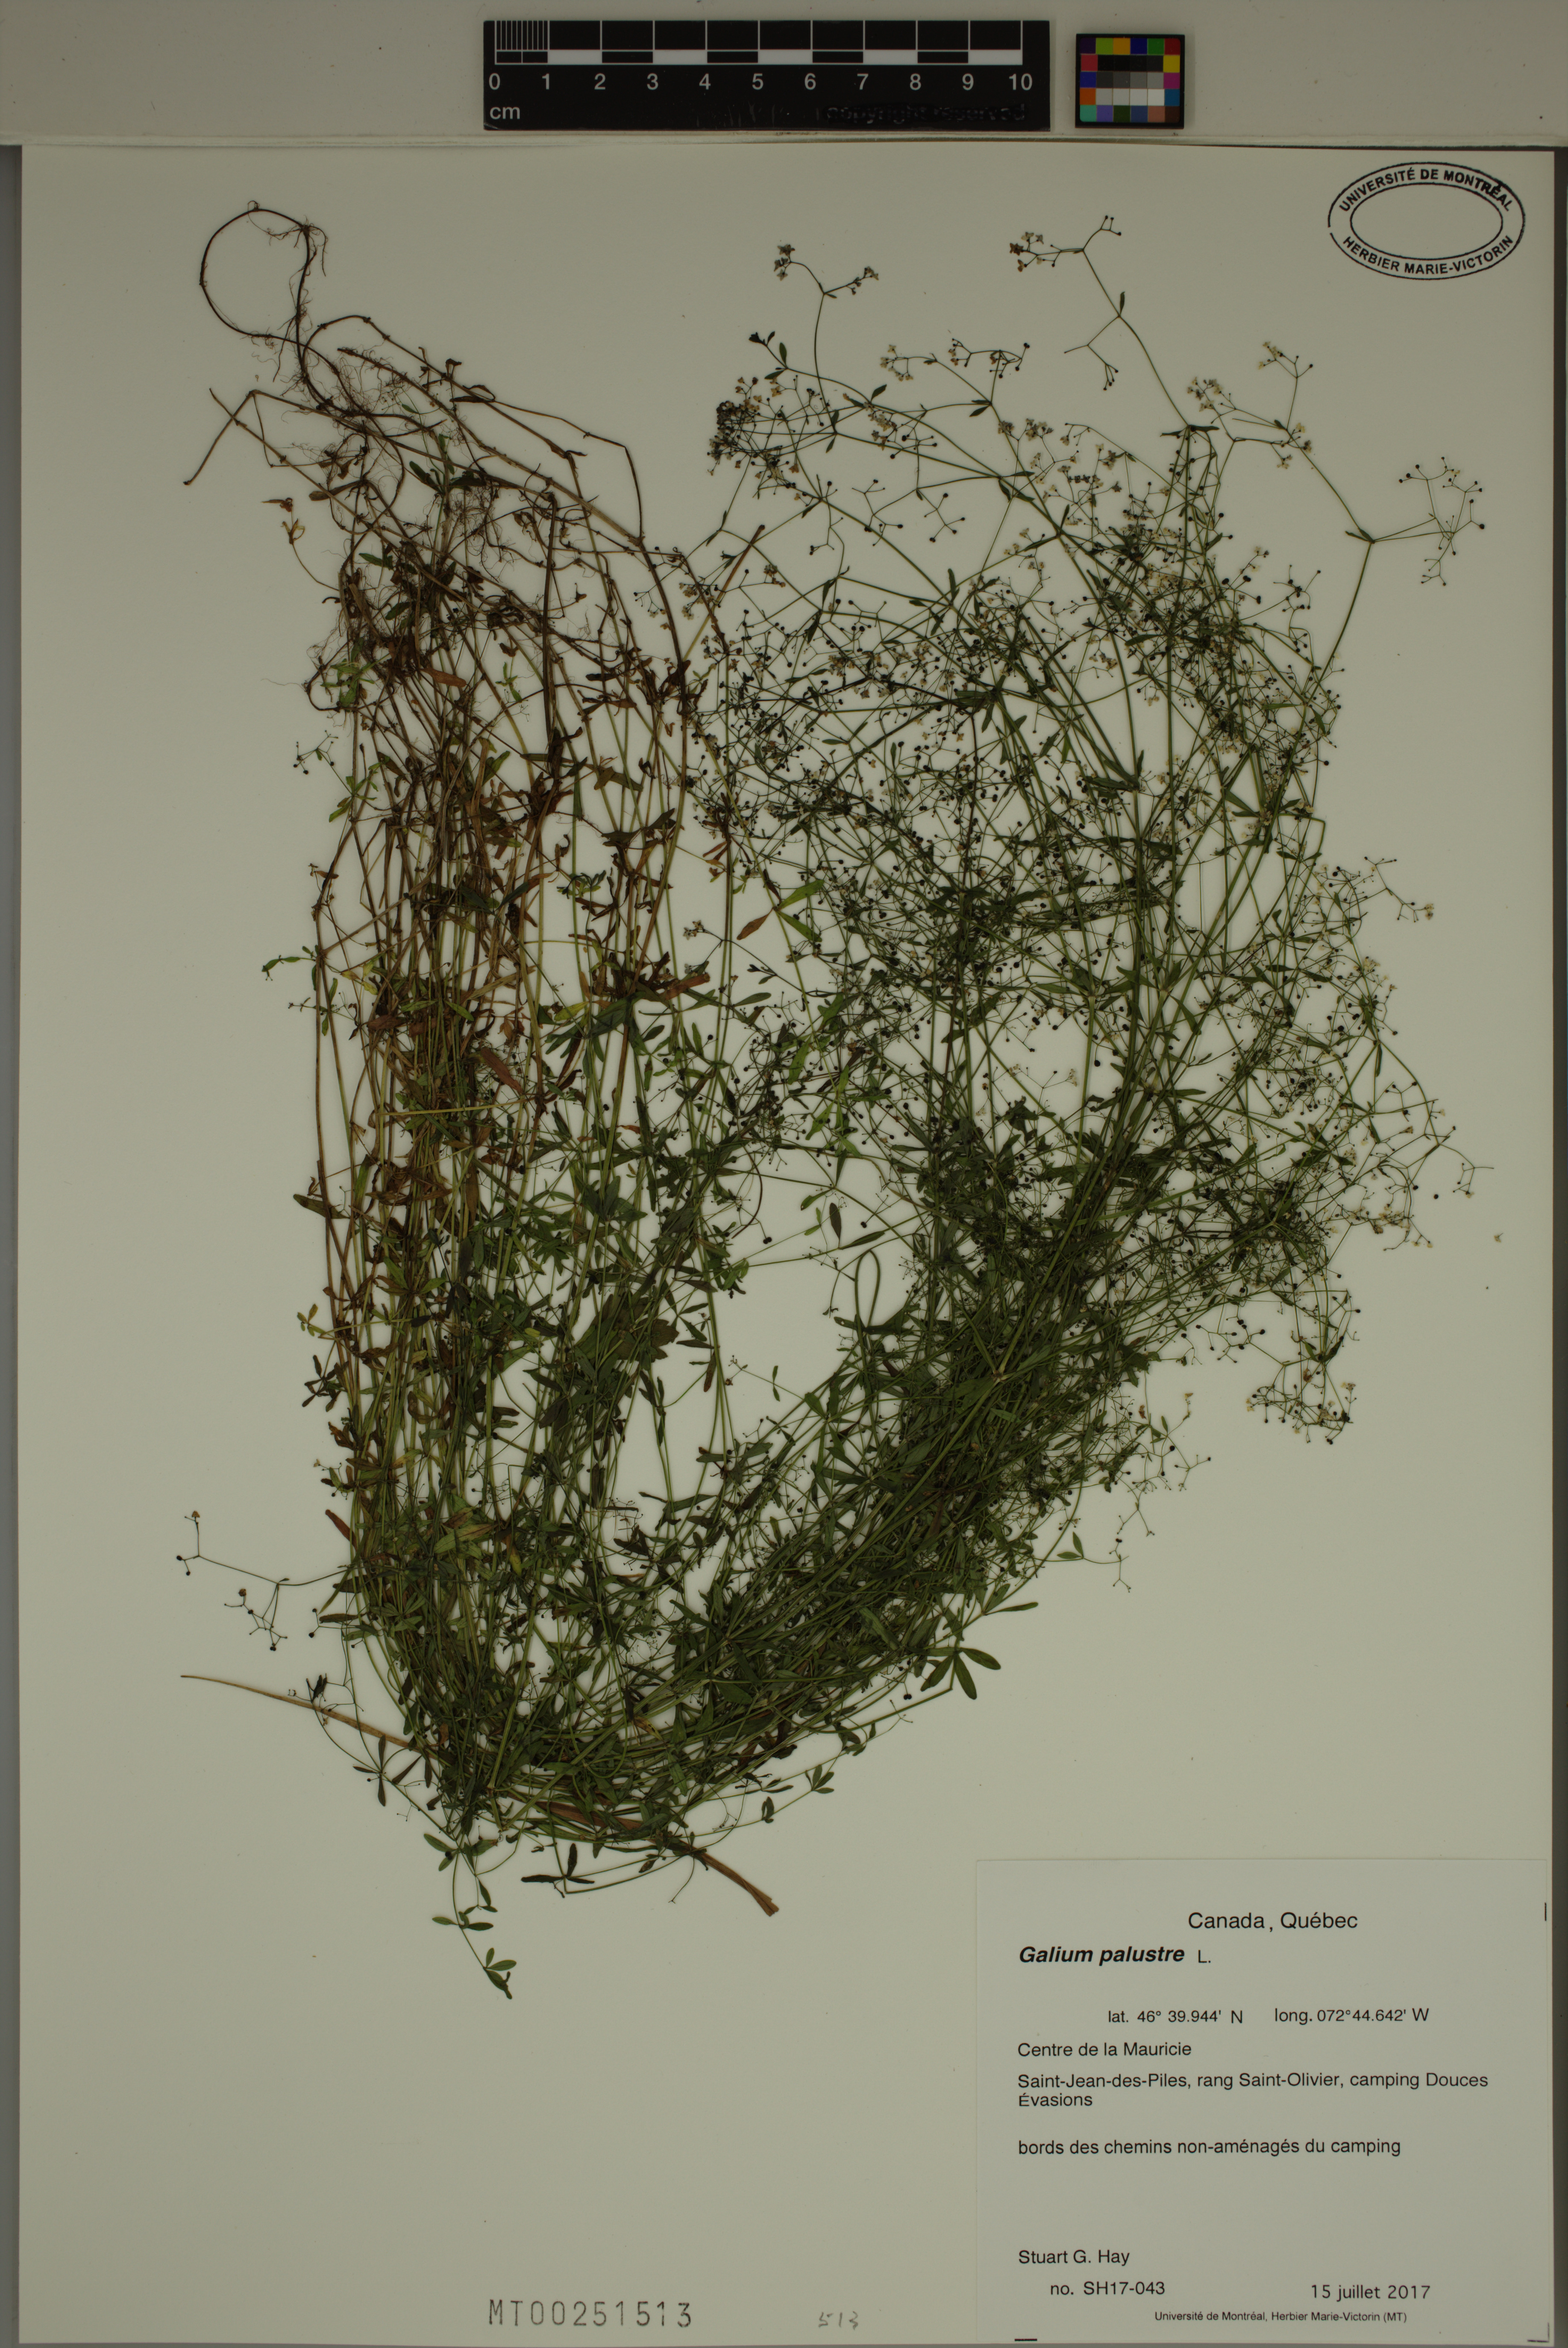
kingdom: Plantae
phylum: Tracheophyta
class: Magnoliopsida
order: Gentianales
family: Rubiaceae
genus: Galium
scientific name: Galium palustre
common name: Common marsh-bedstraw
